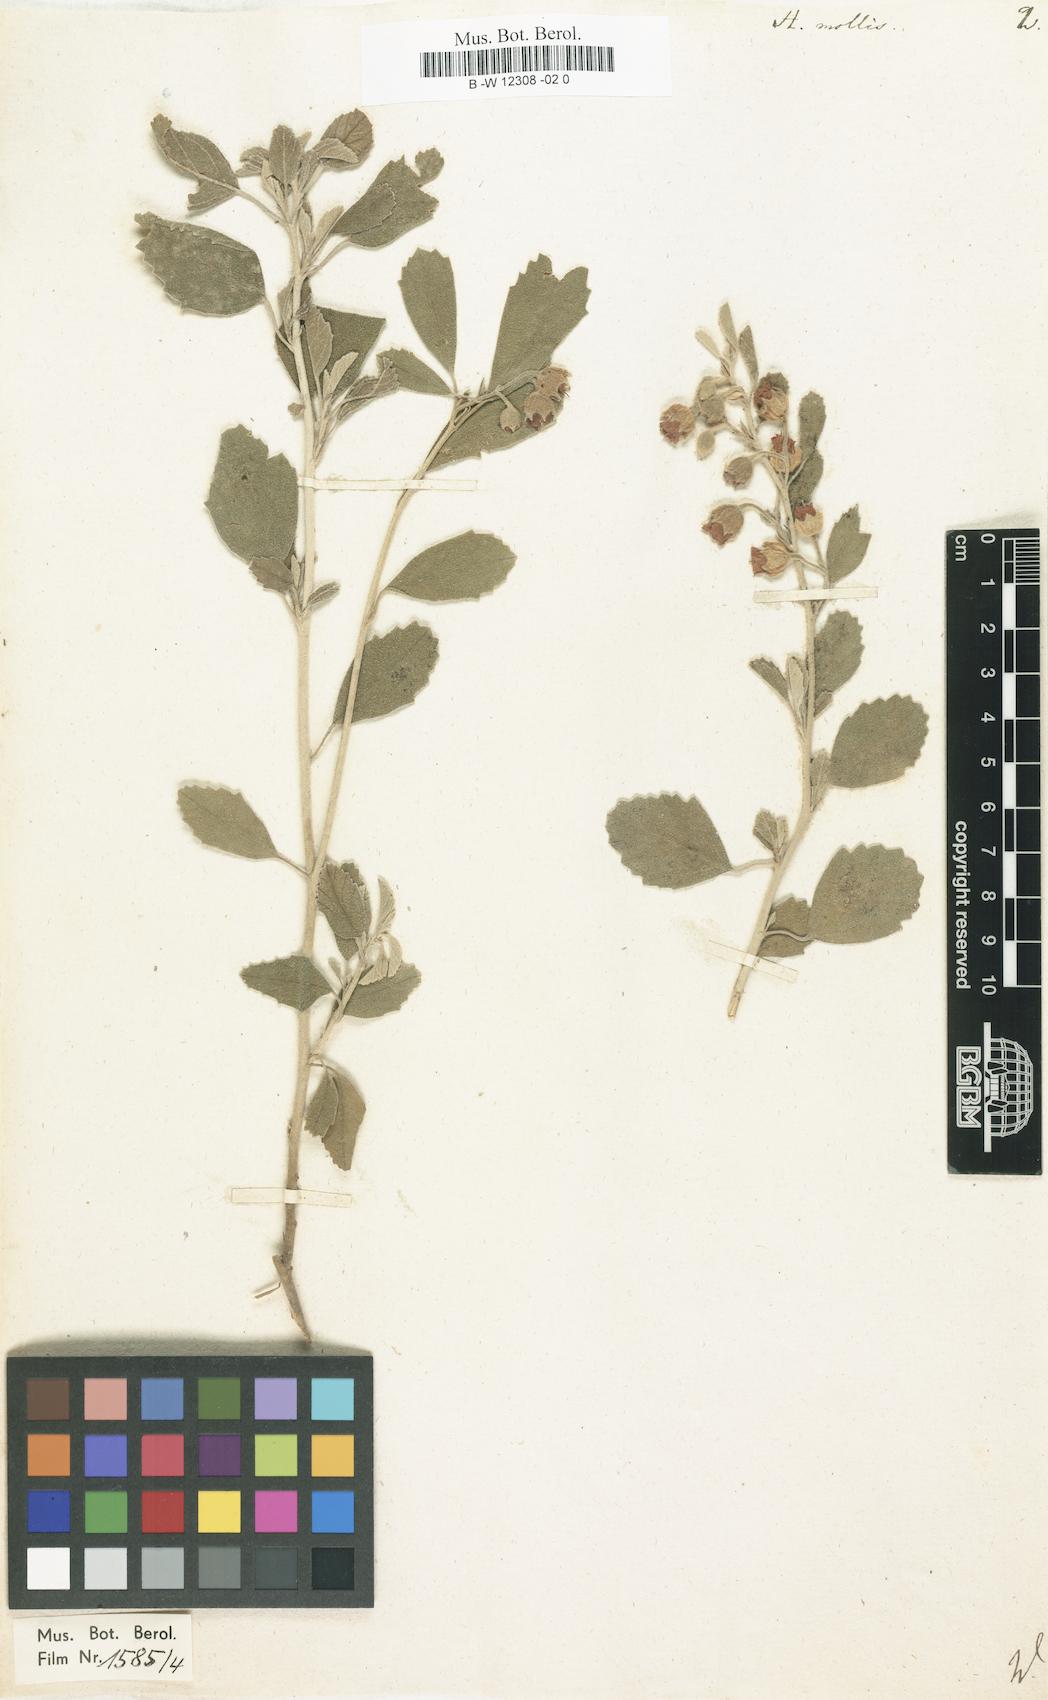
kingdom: Plantae
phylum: Tracheophyta
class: Magnoliopsida
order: Malvales
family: Malvaceae
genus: Hermannia
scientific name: Hermannia incana
